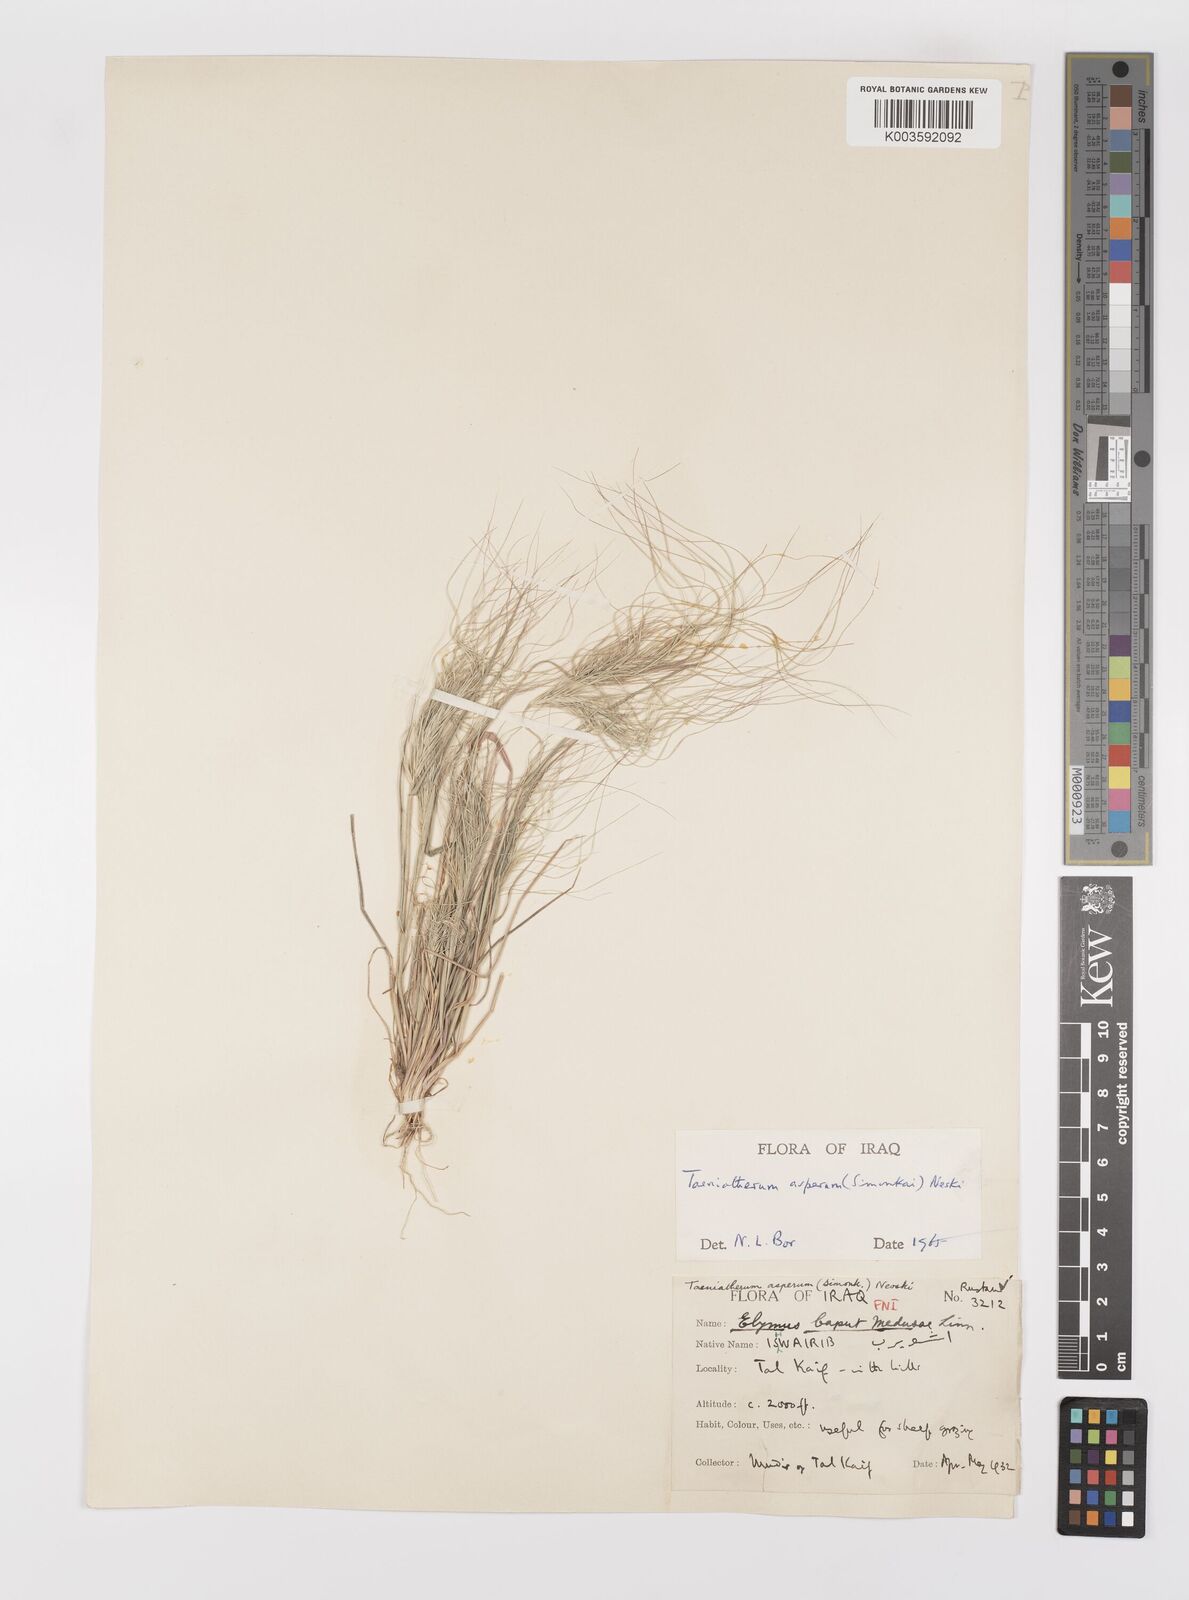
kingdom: Plantae
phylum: Tracheophyta
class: Liliopsida
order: Poales
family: Poaceae
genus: Taeniatherum
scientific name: Taeniatherum caput-medusae
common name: Medusahead
